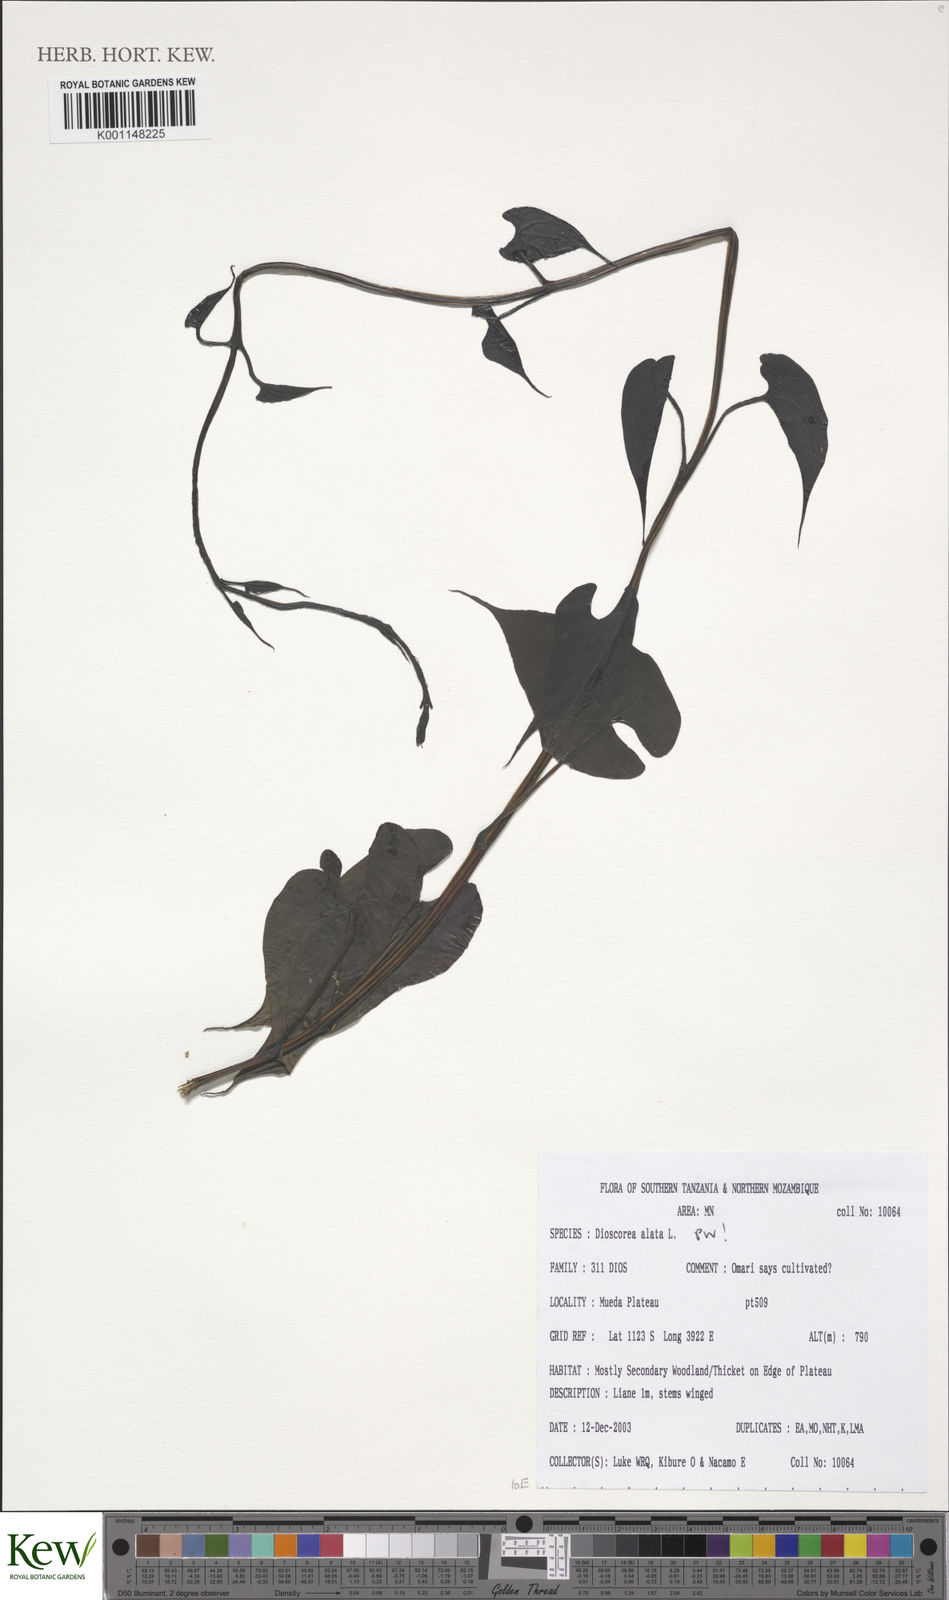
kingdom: Plantae
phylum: Tracheophyta
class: Liliopsida
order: Dioscoreales
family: Dioscoreaceae
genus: Dioscorea
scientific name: Dioscorea alata
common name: Water yam
